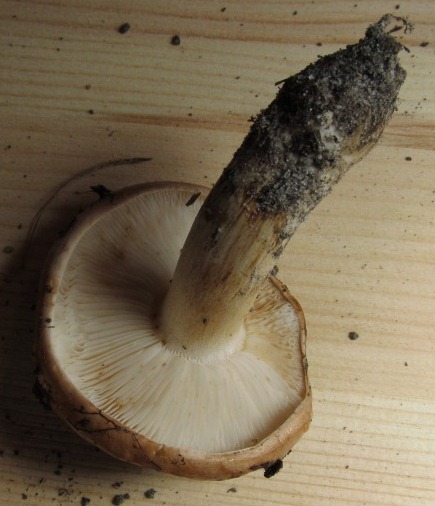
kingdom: Fungi
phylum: Basidiomycota
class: Agaricomycetes
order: Agaricales
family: Tricholomataceae
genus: Tricholoma
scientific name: Tricholoma stans
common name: stolt ridderhat
